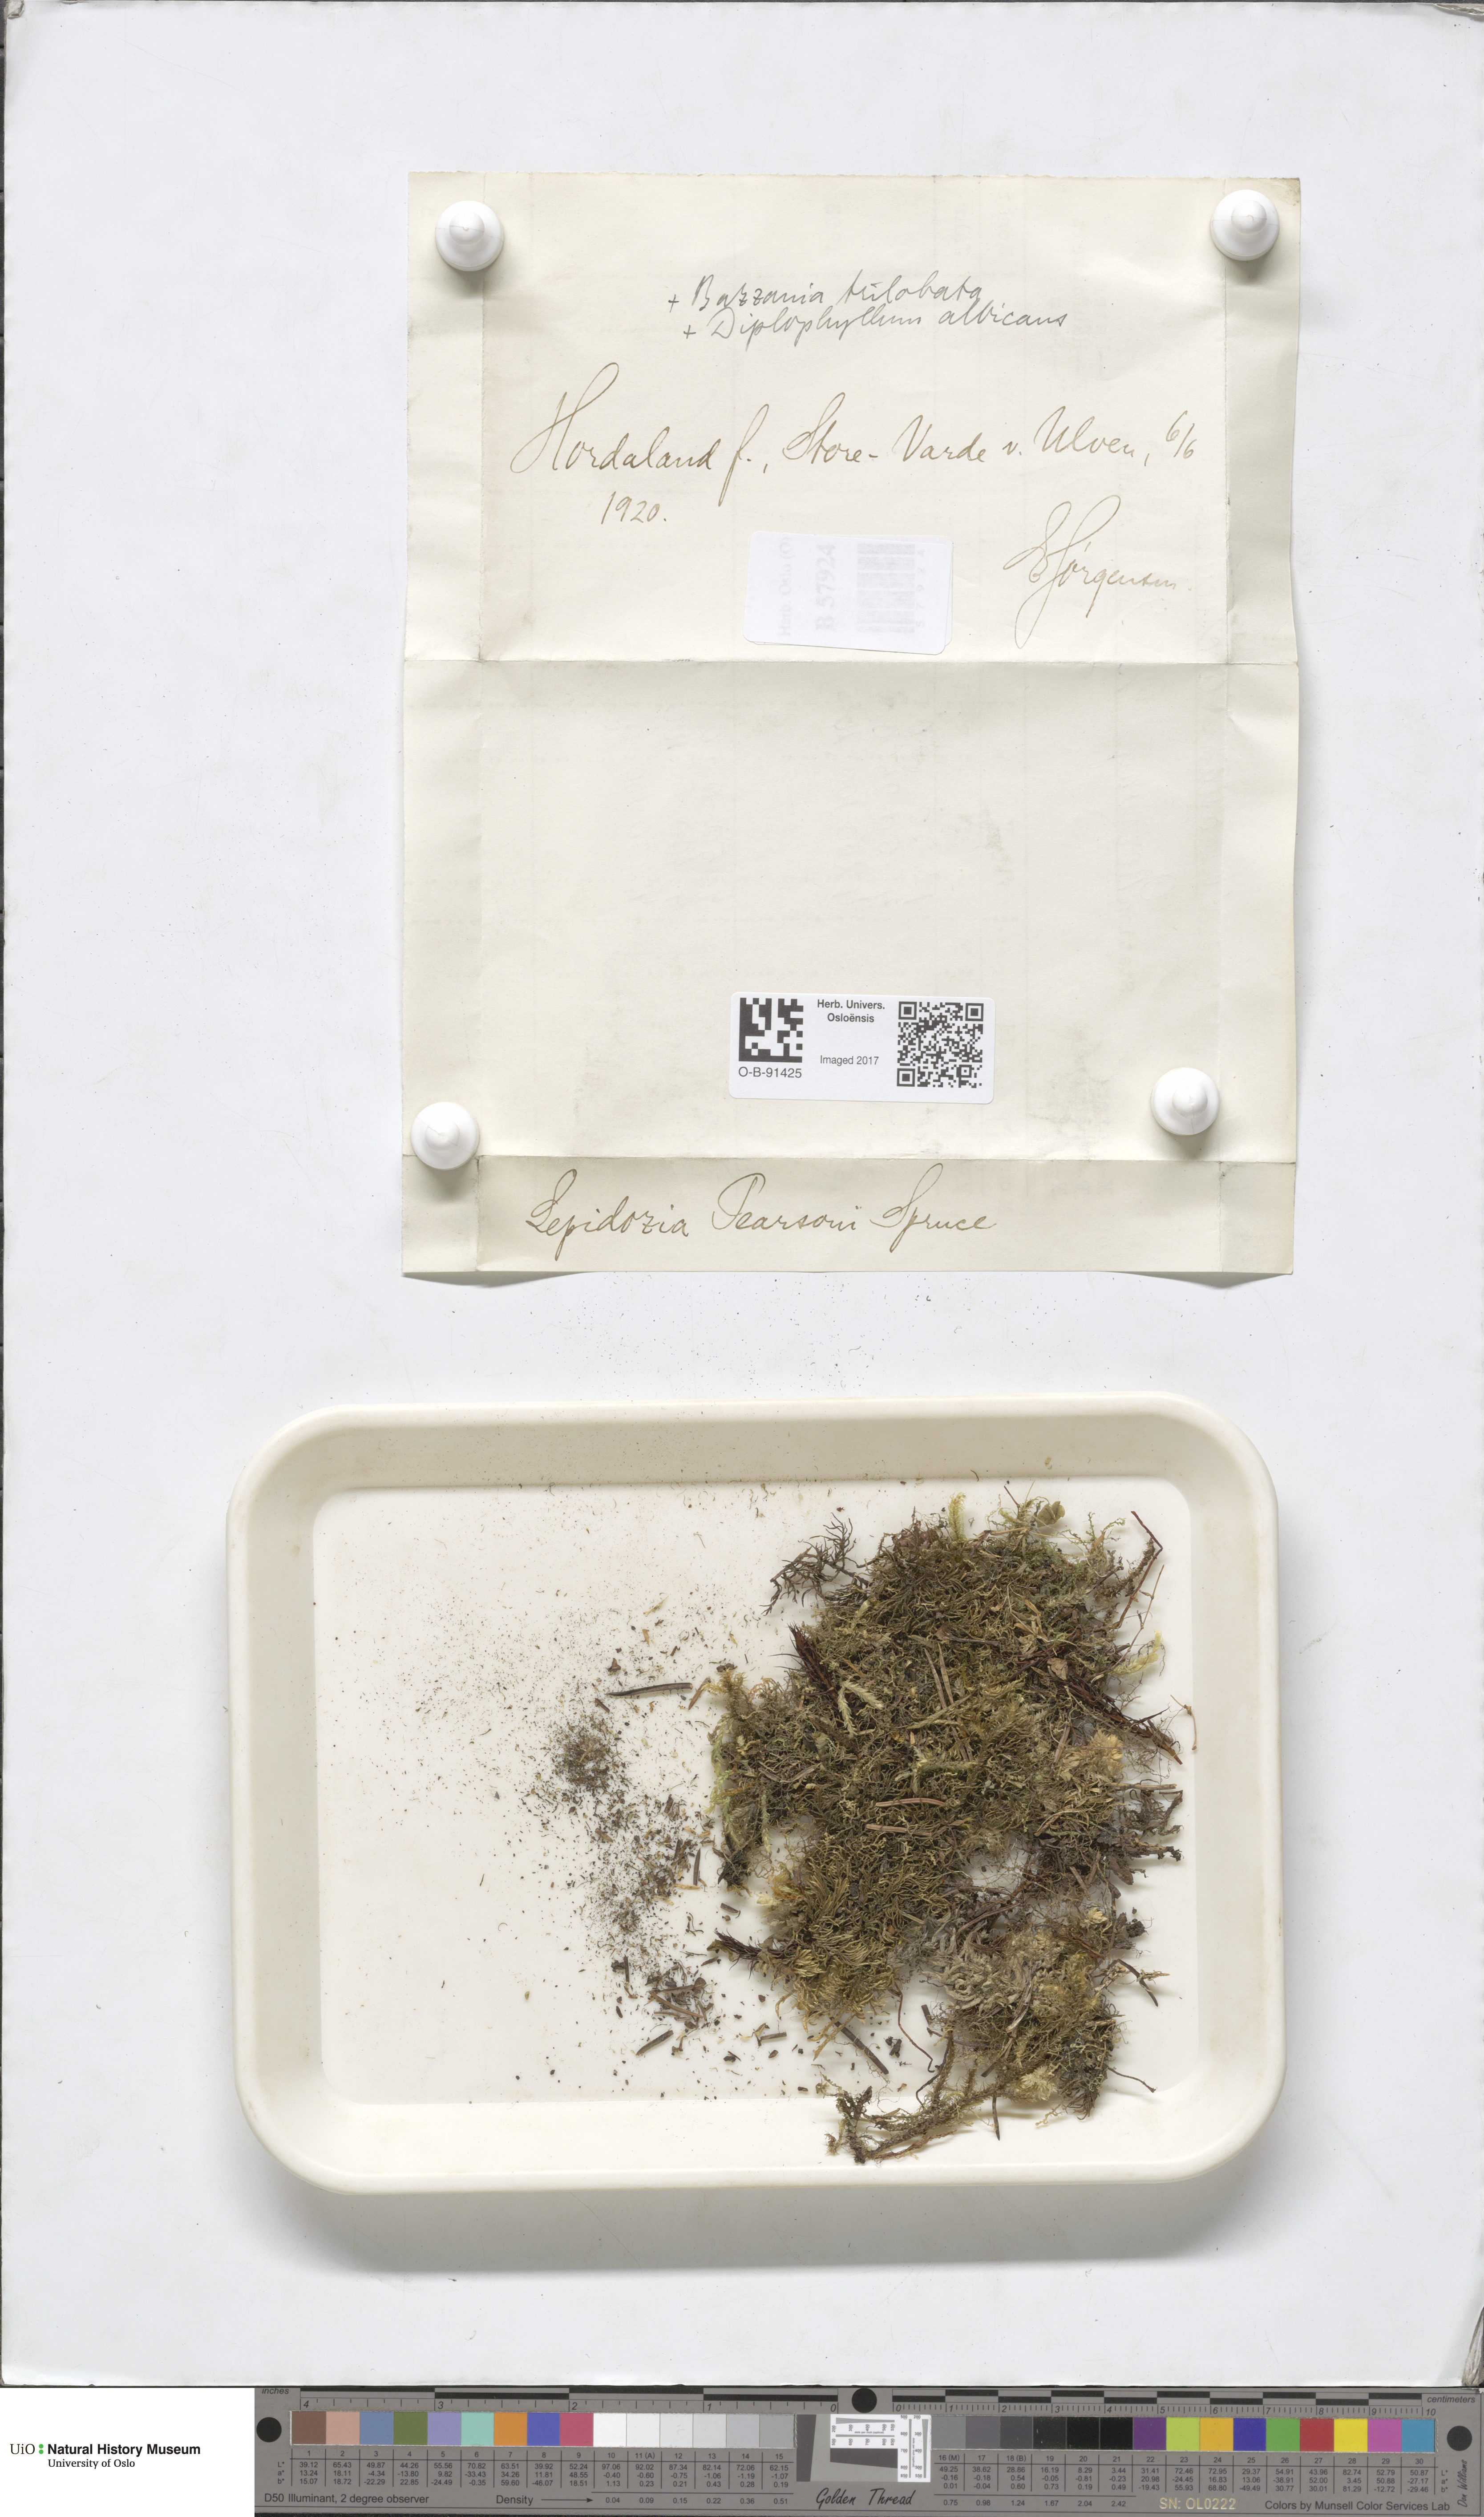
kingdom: Plantae
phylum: Marchantiophyta
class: Jungermanniopsida
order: Jungermanniales
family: Lepidoziaceae
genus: Lepidozia
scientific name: Lepidozia pearsonii
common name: Pearson's fingerwort
